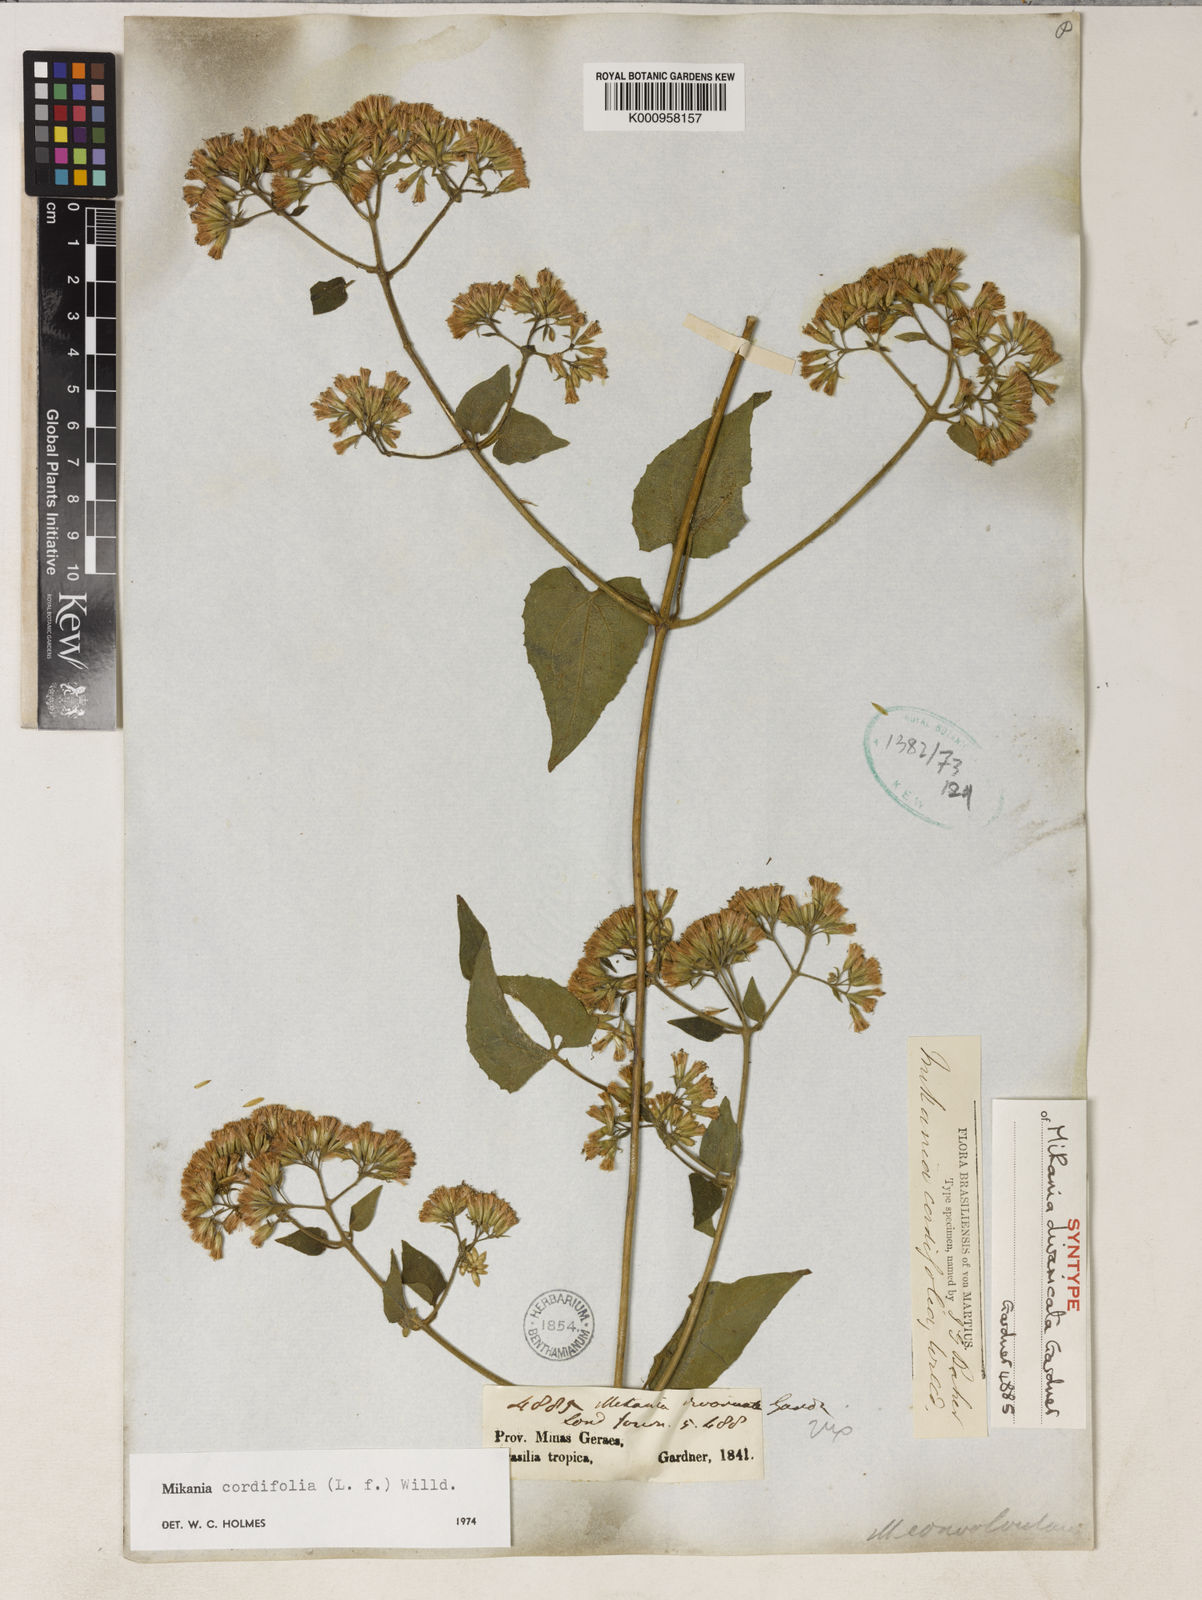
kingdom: Plantae
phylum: Tracheophyta
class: Magnoliopsida
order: Asterales
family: Asteraceae
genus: Mikania
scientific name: Mikania cordifolia
